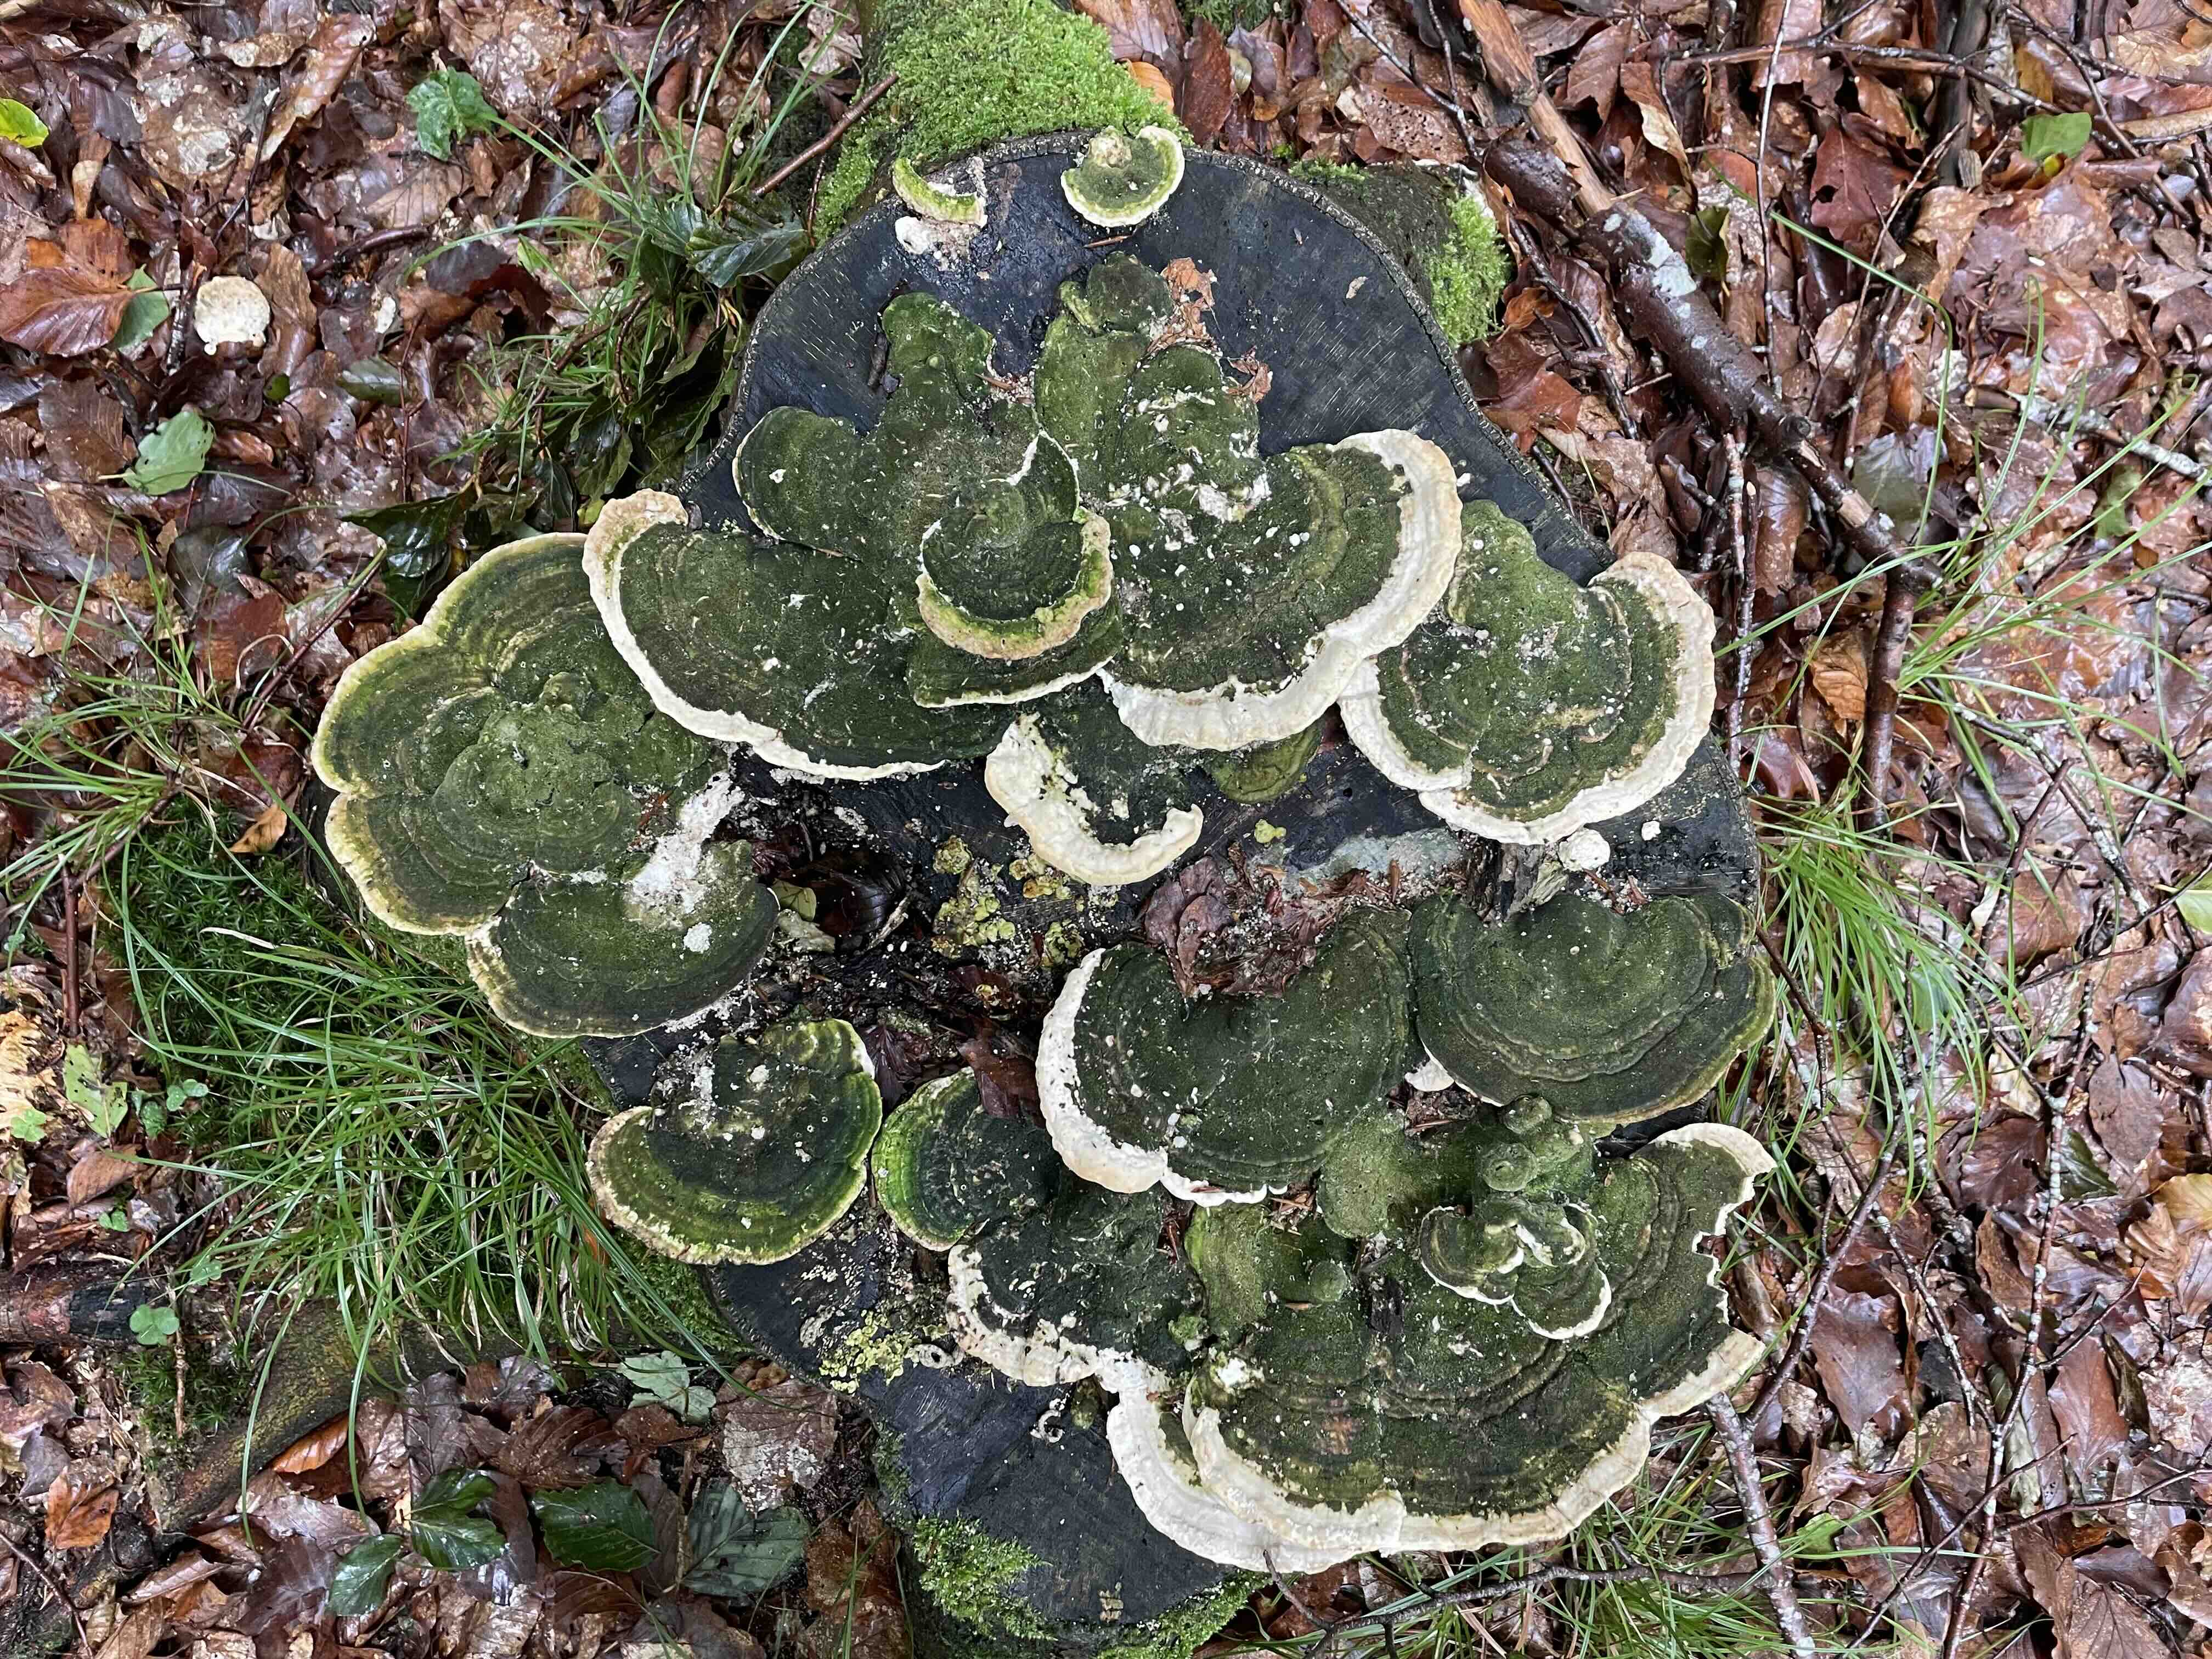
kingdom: Fungi
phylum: Basidiomycota
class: Agaricomycetes
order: Polyporales
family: Polyporaceae
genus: Trametes
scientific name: Trametes gibbosa
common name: puklet læderporesvamp
